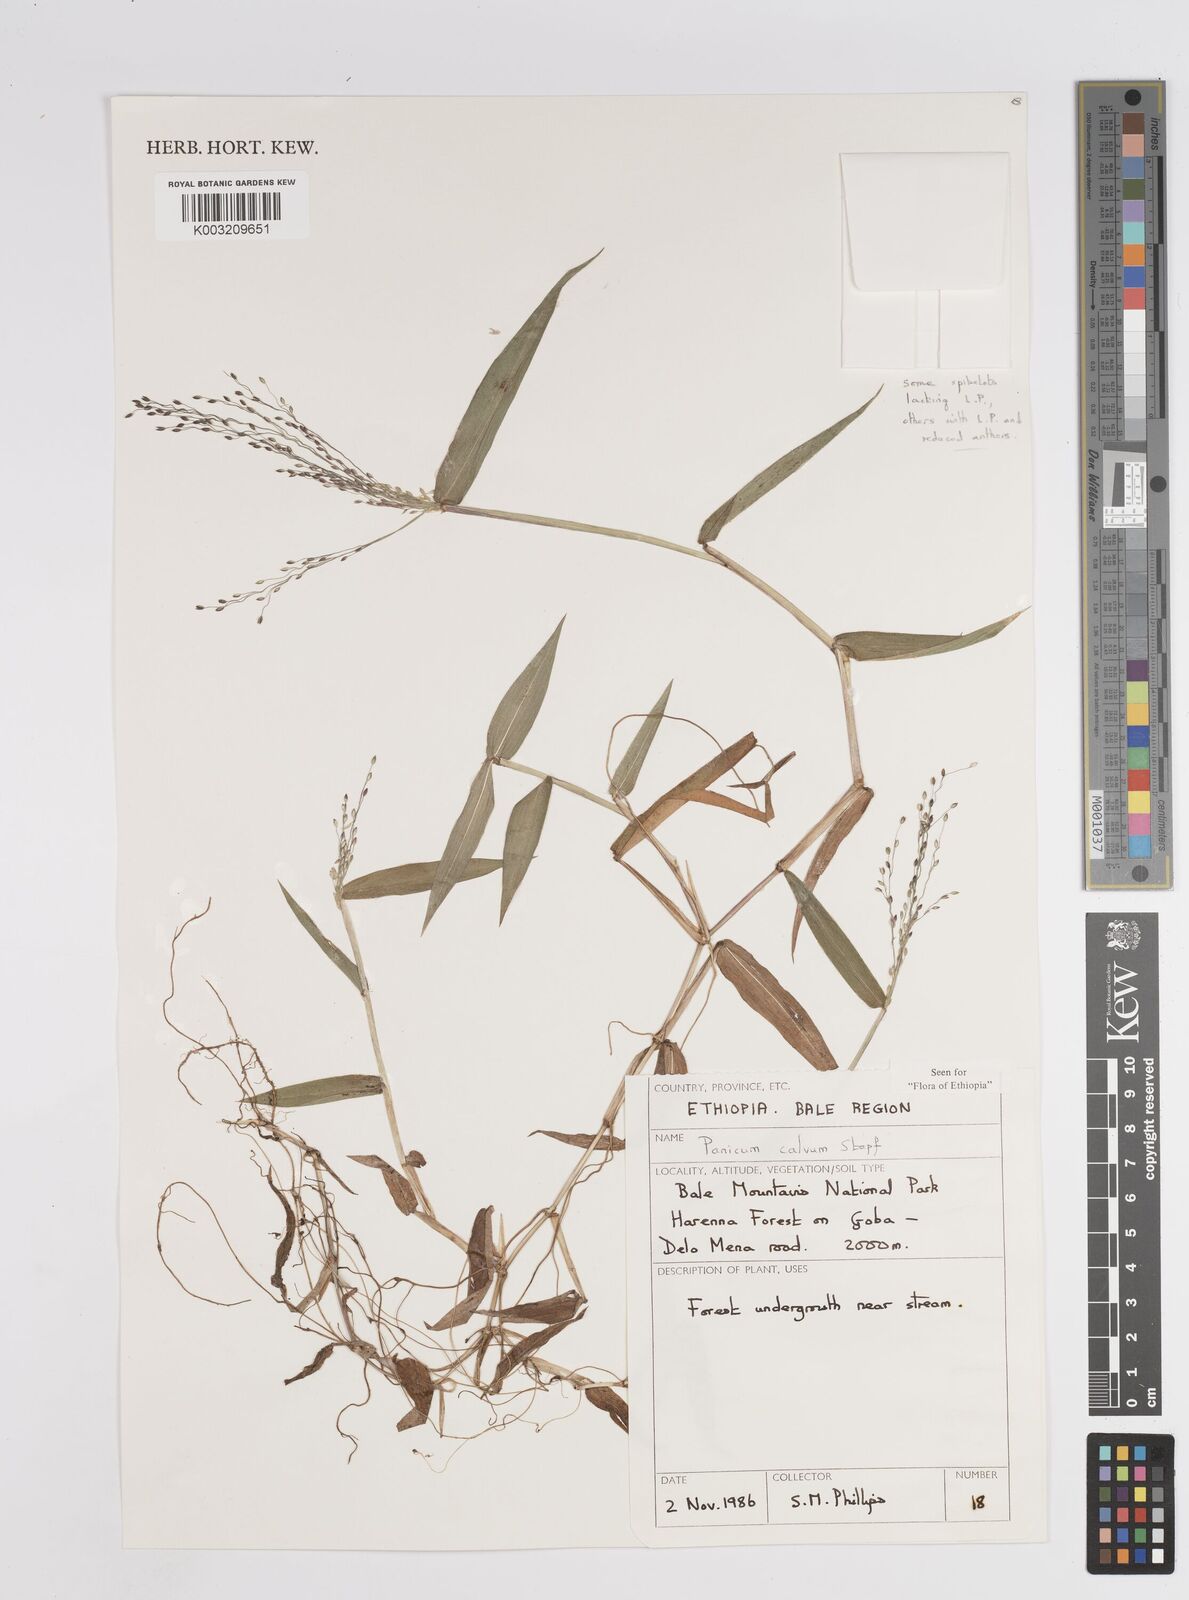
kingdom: Plantae
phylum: Tracheophyta
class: Liliopsida
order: Poales
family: Poaceae
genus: Panicum
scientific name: Panicum calvum
